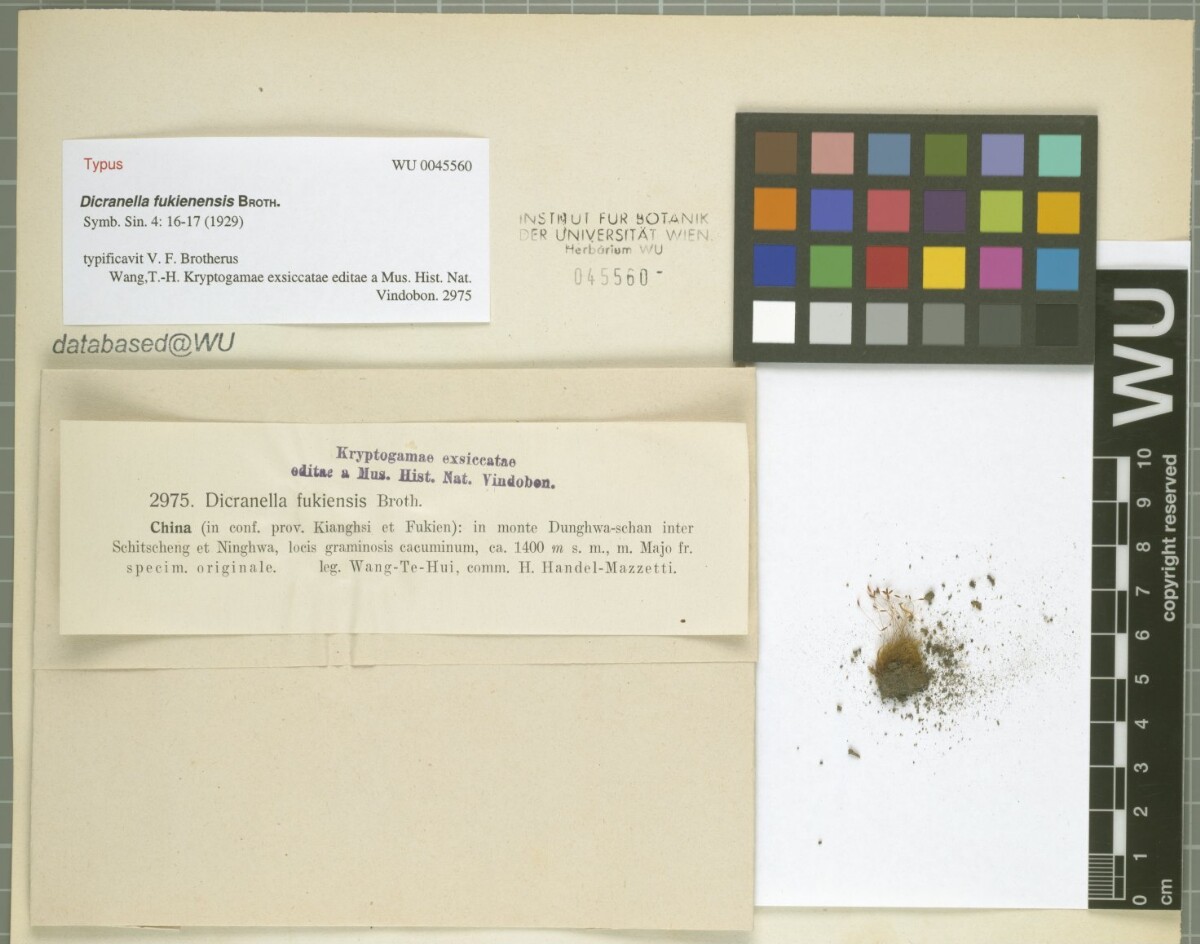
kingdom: Plantae
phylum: Bryophyta
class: Bryopsida
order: Dicranales
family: Dicranellaceae
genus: Dicranella
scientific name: Dicranella fukienensis
